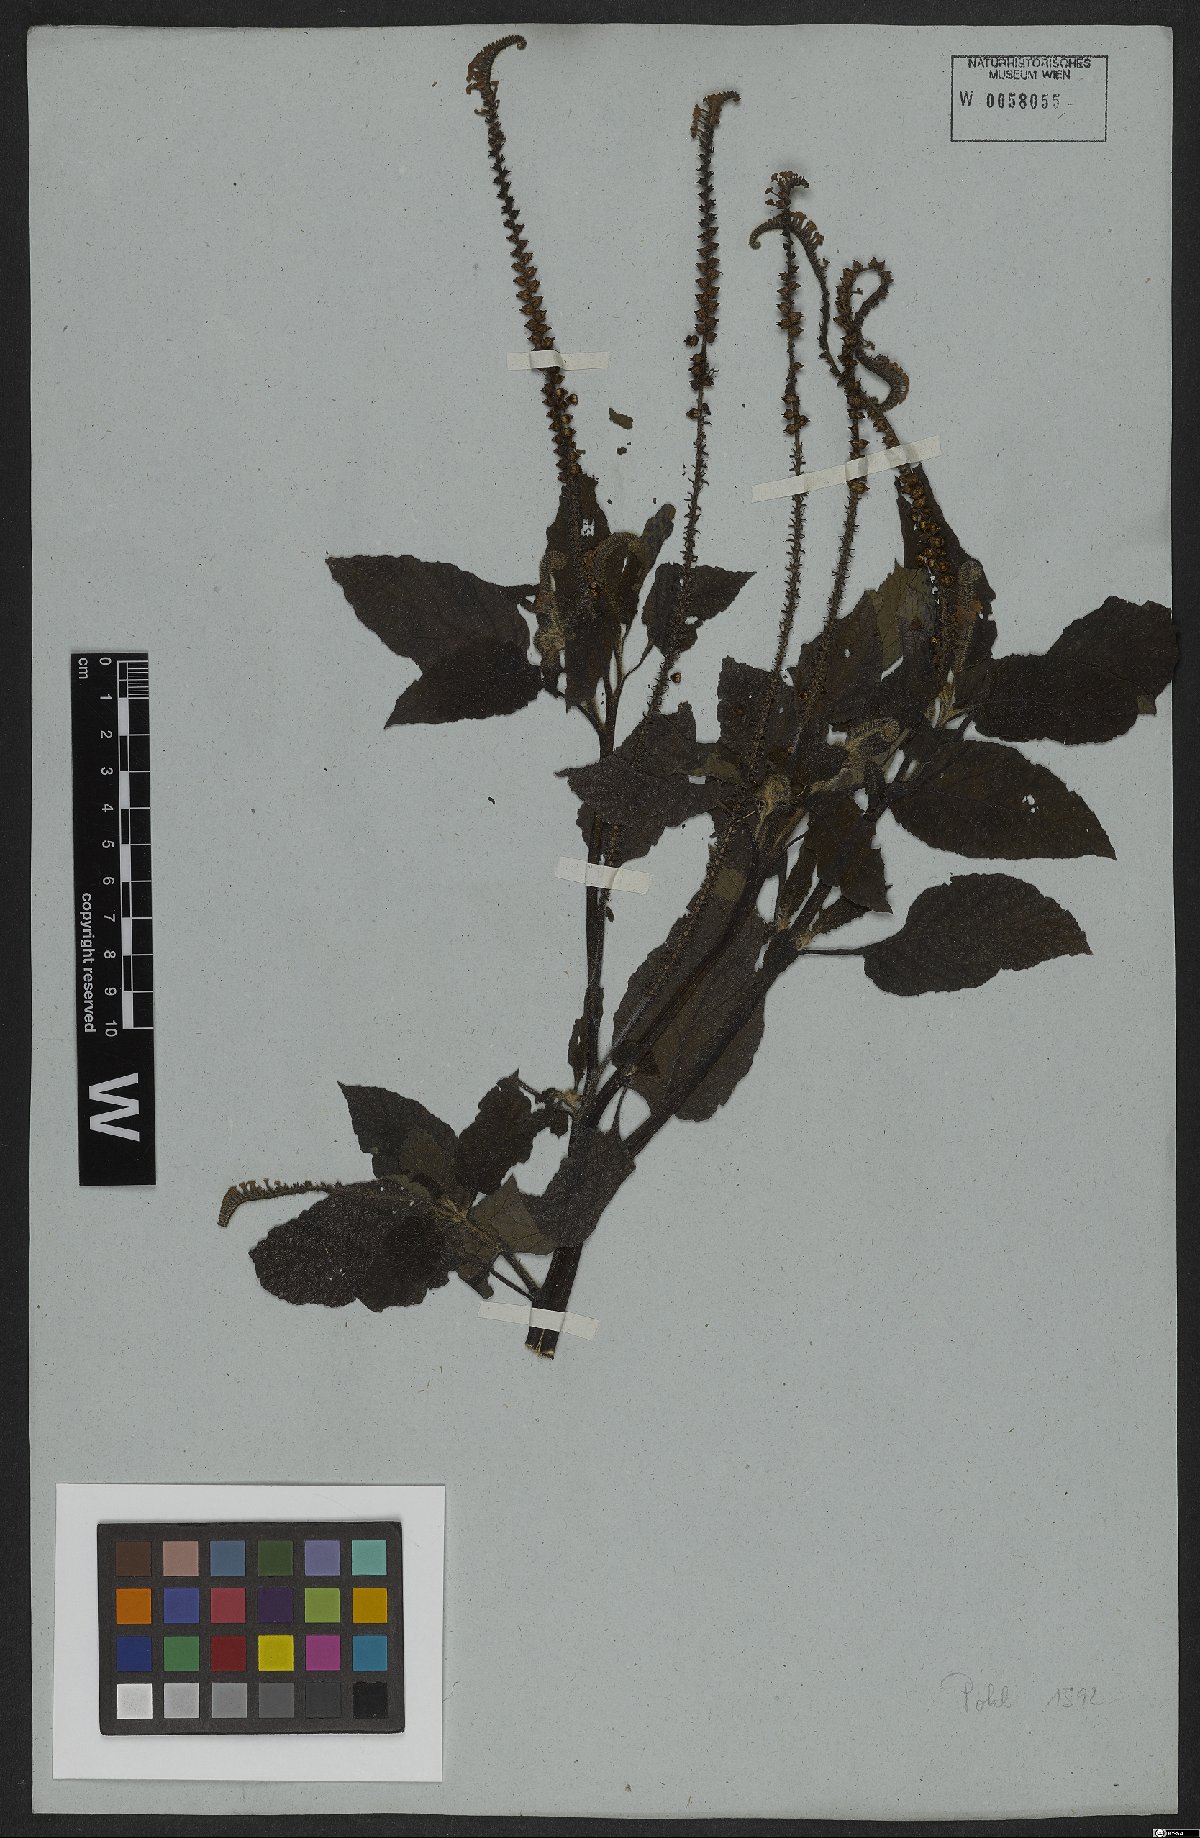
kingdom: Plantae
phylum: Tracheophyta
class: Magnoliopsida
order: Boraginales
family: Heliotropiaceae
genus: Heliotropium
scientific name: Heliotropium indicum
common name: Indian heliotrope
